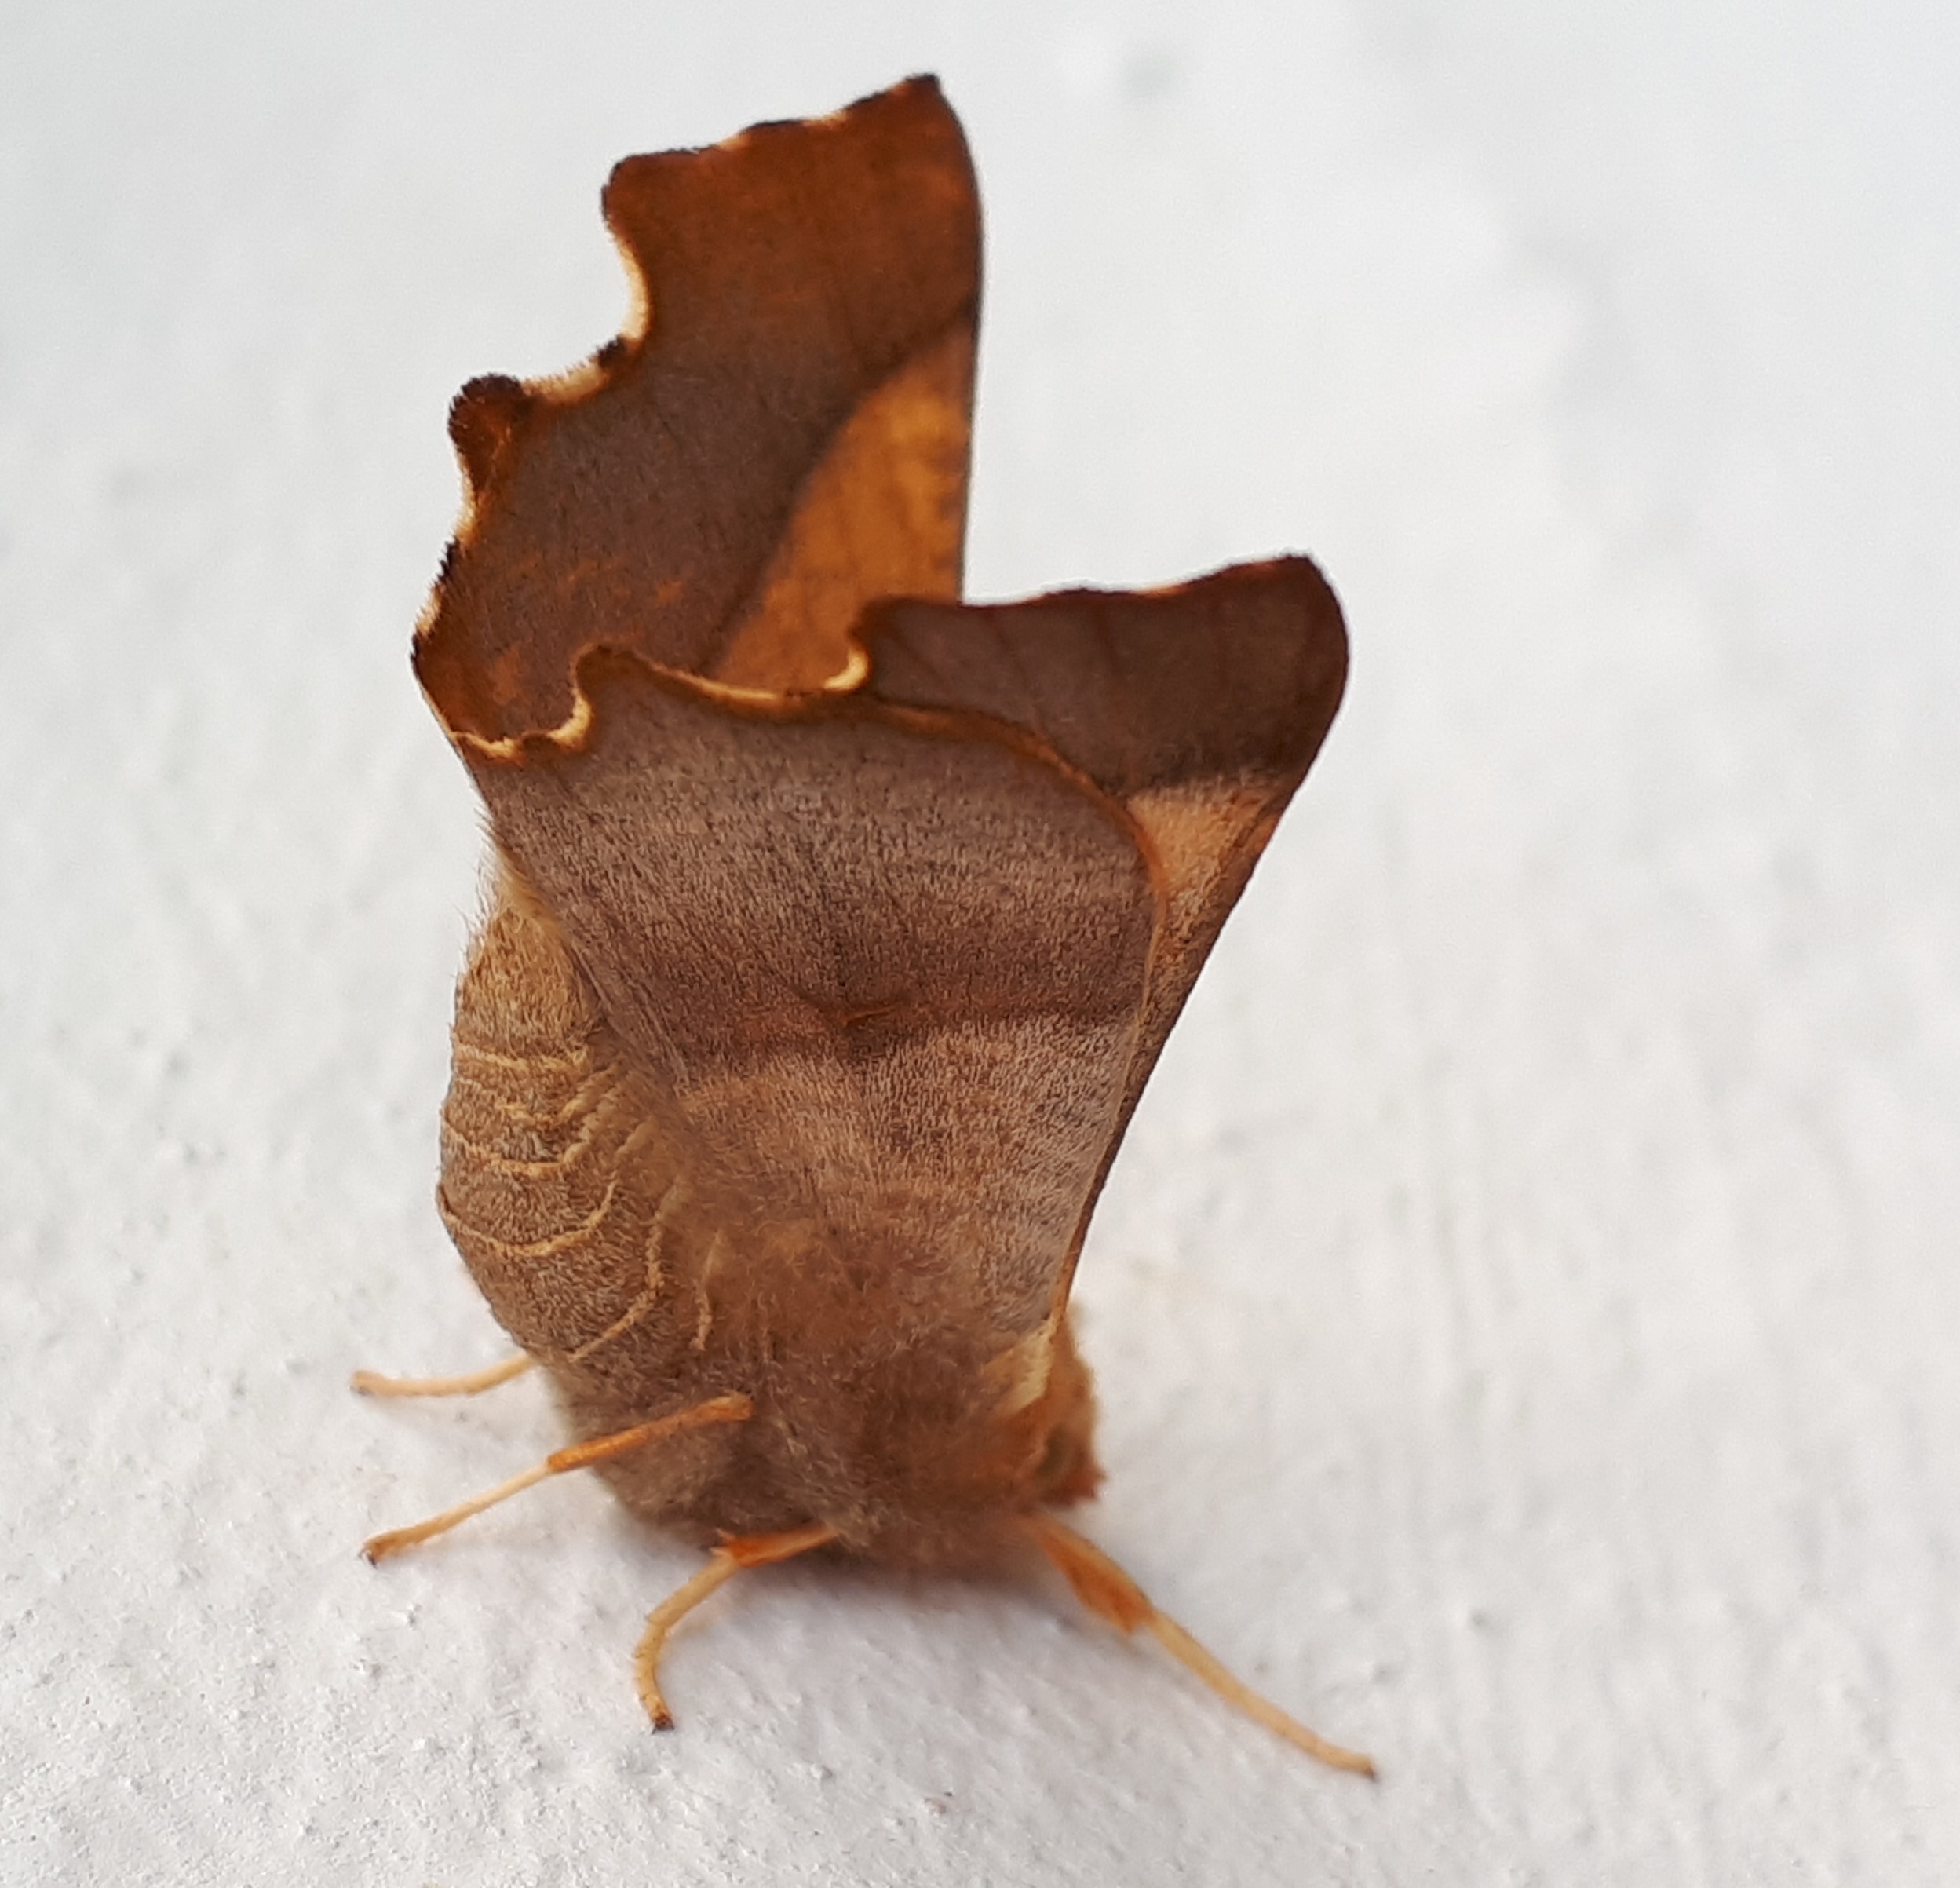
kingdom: Animalia
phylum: Arthropoda
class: Insecta
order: Lepidoptera
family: Geometridae
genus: Ennomos
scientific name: Ennomos fuscantaria
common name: Asketandmåler
